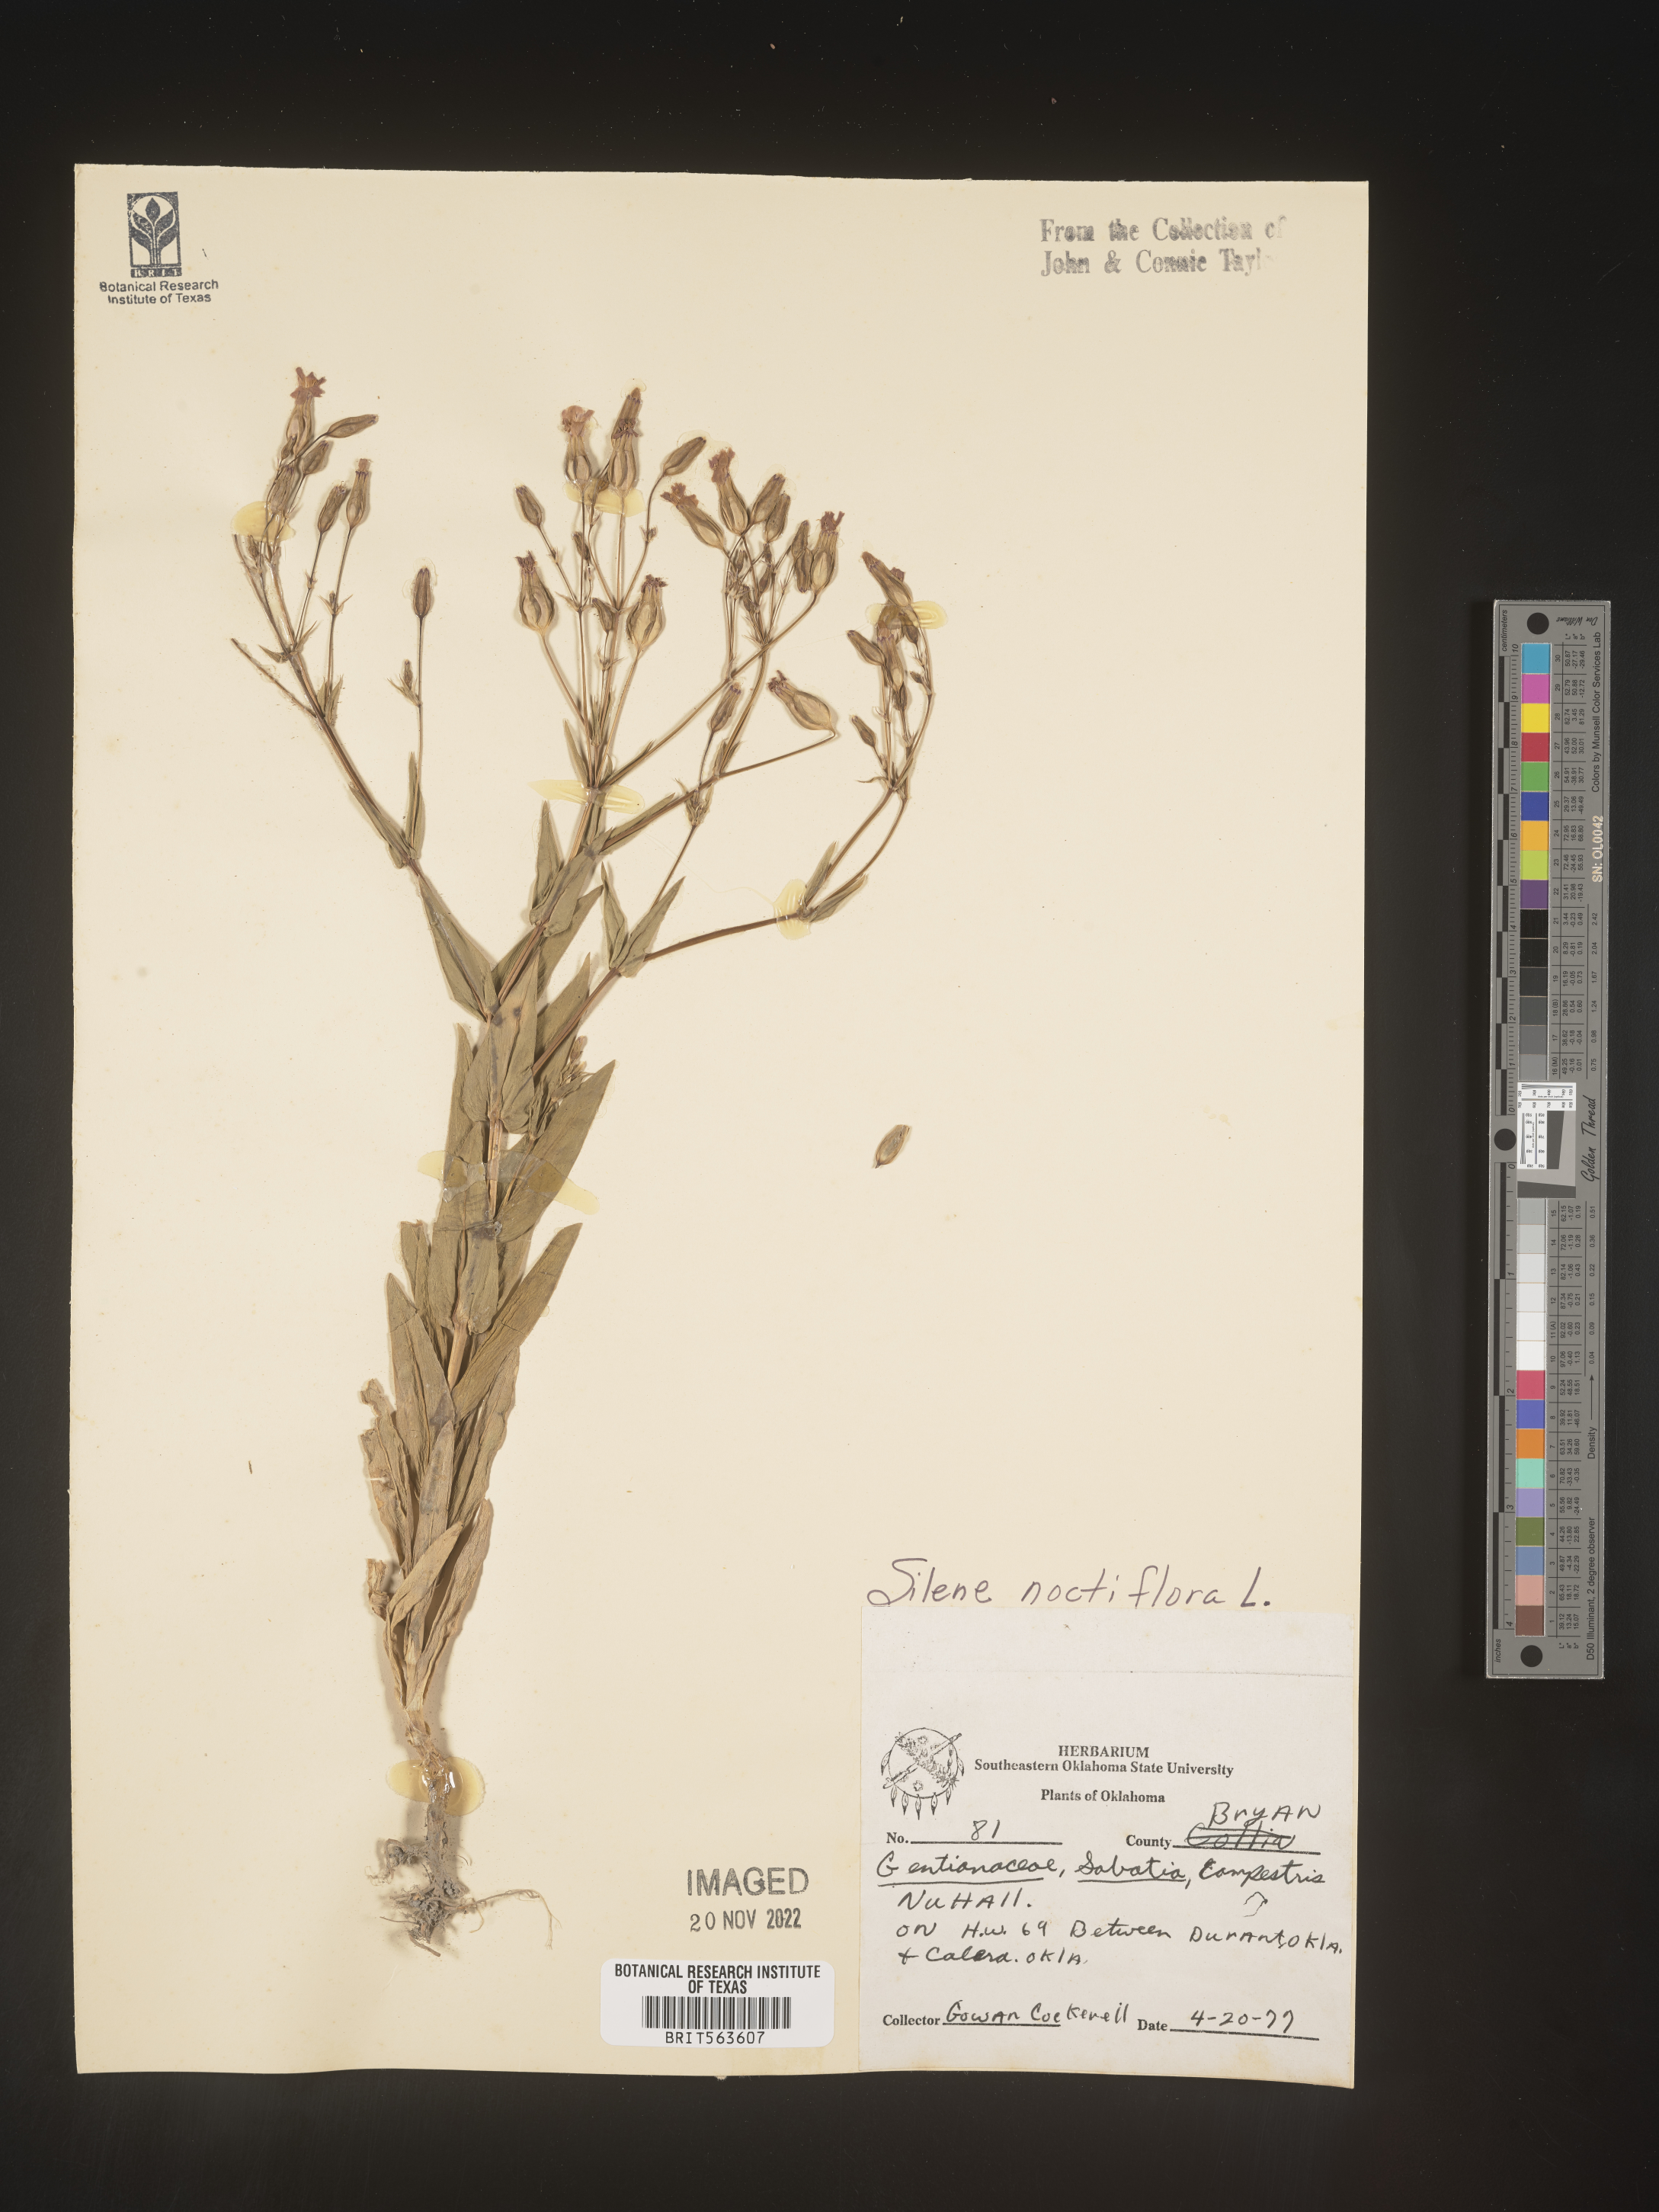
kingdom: Plantae
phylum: Tracheophyta
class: Magnoliopsida
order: Caryophyllales
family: Caryophyllaceae
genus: Vaccaria
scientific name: Vaccaria
